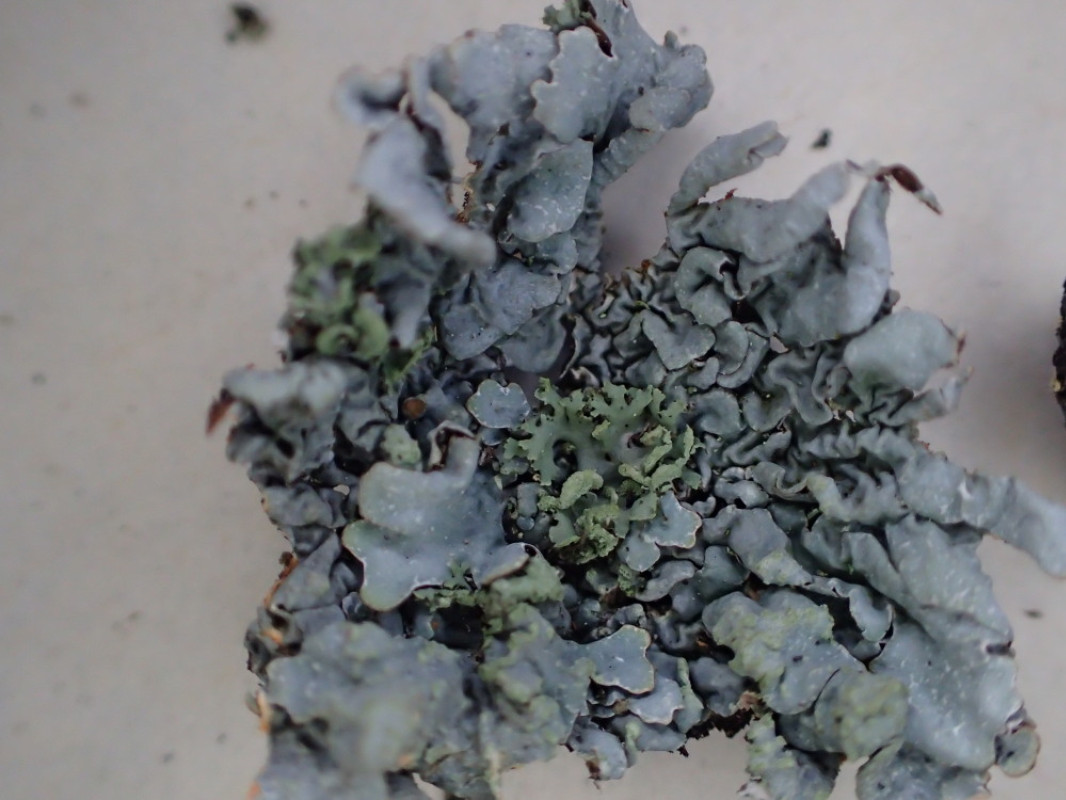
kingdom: Fungi
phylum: Ascomycota
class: Lecanoromycetes
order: Lecanorales
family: Parmeliaceae
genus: Parmelia
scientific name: Parmelia sulcata
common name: rynket skållav
